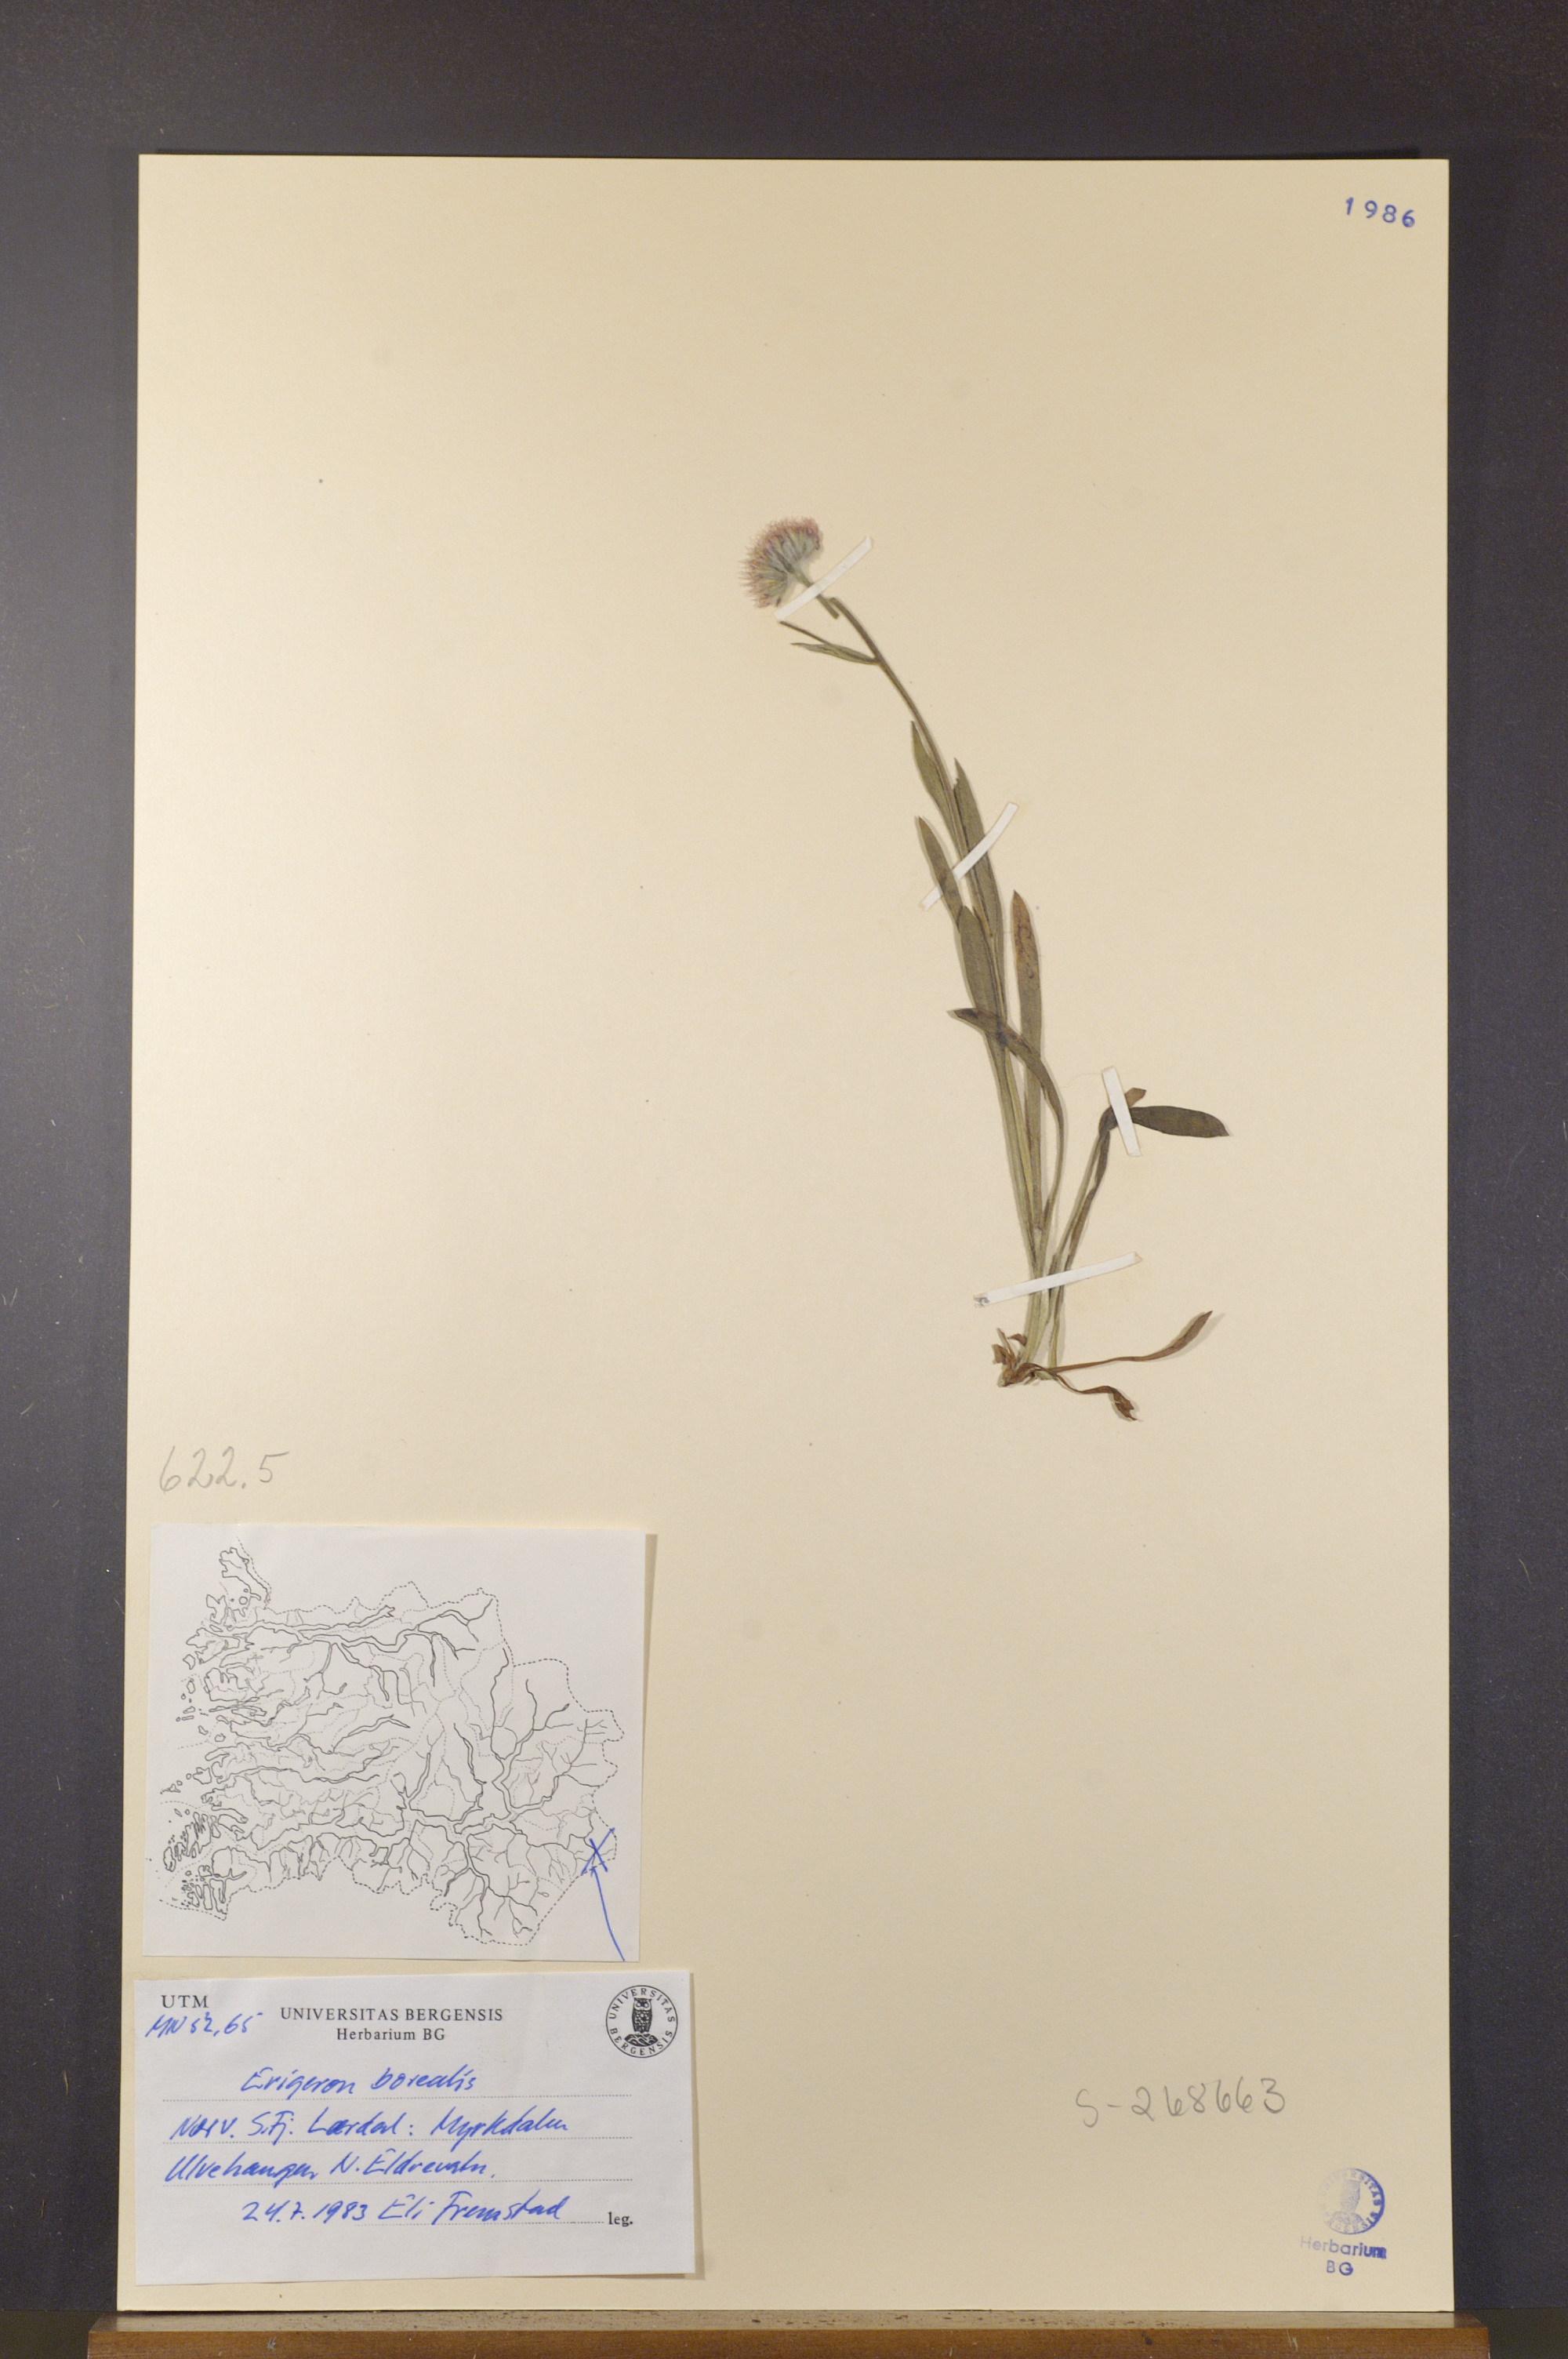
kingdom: Plantae
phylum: Tracheophyta
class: Magnoliopsida
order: Asterales
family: Asteraceae
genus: Erigeron
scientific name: Erigeron borealis
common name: Alpine fleabane
